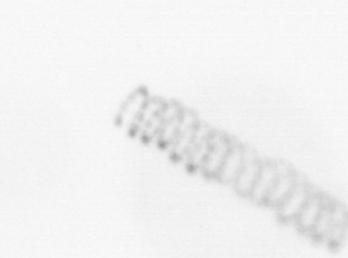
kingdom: Chromista
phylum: Ochrophyta
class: Bacillariophyceae
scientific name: Bacillariophyceae
